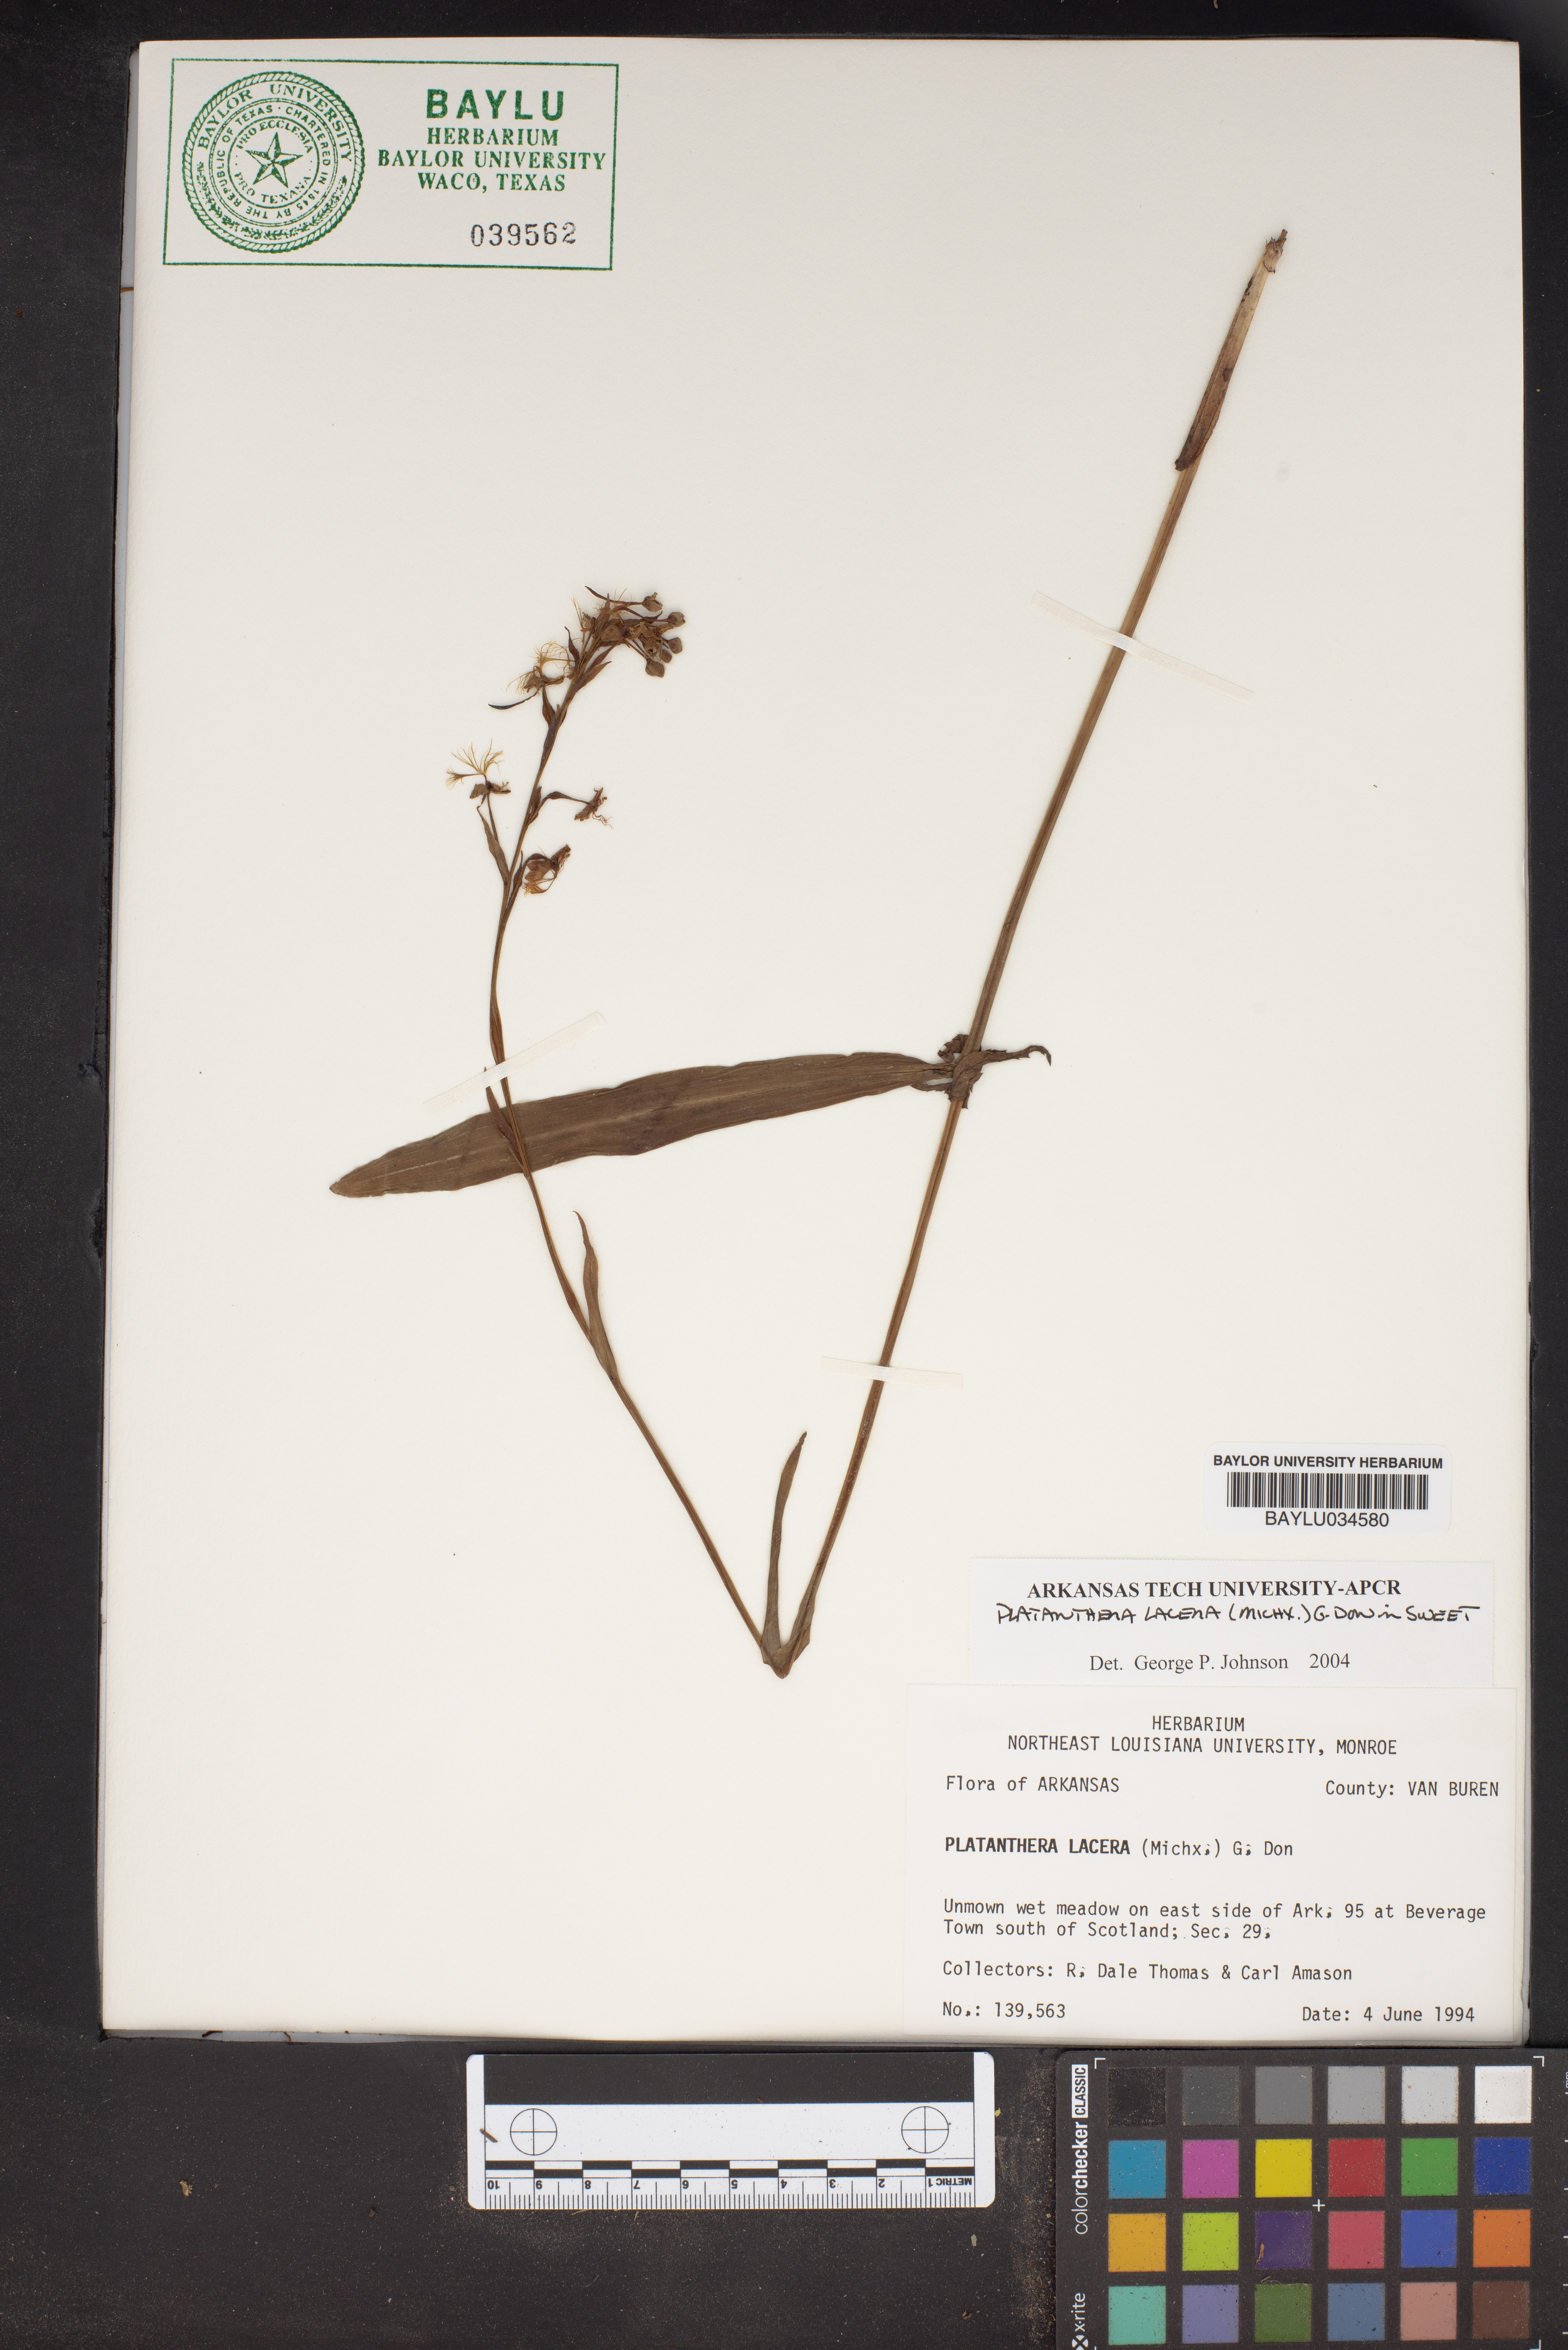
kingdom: Plantae
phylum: Tracheophyta
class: Liliopsida
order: Asparagales
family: Orchidaceae
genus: Platanthera
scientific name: Platanthera lacera
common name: Green fringed orchid
